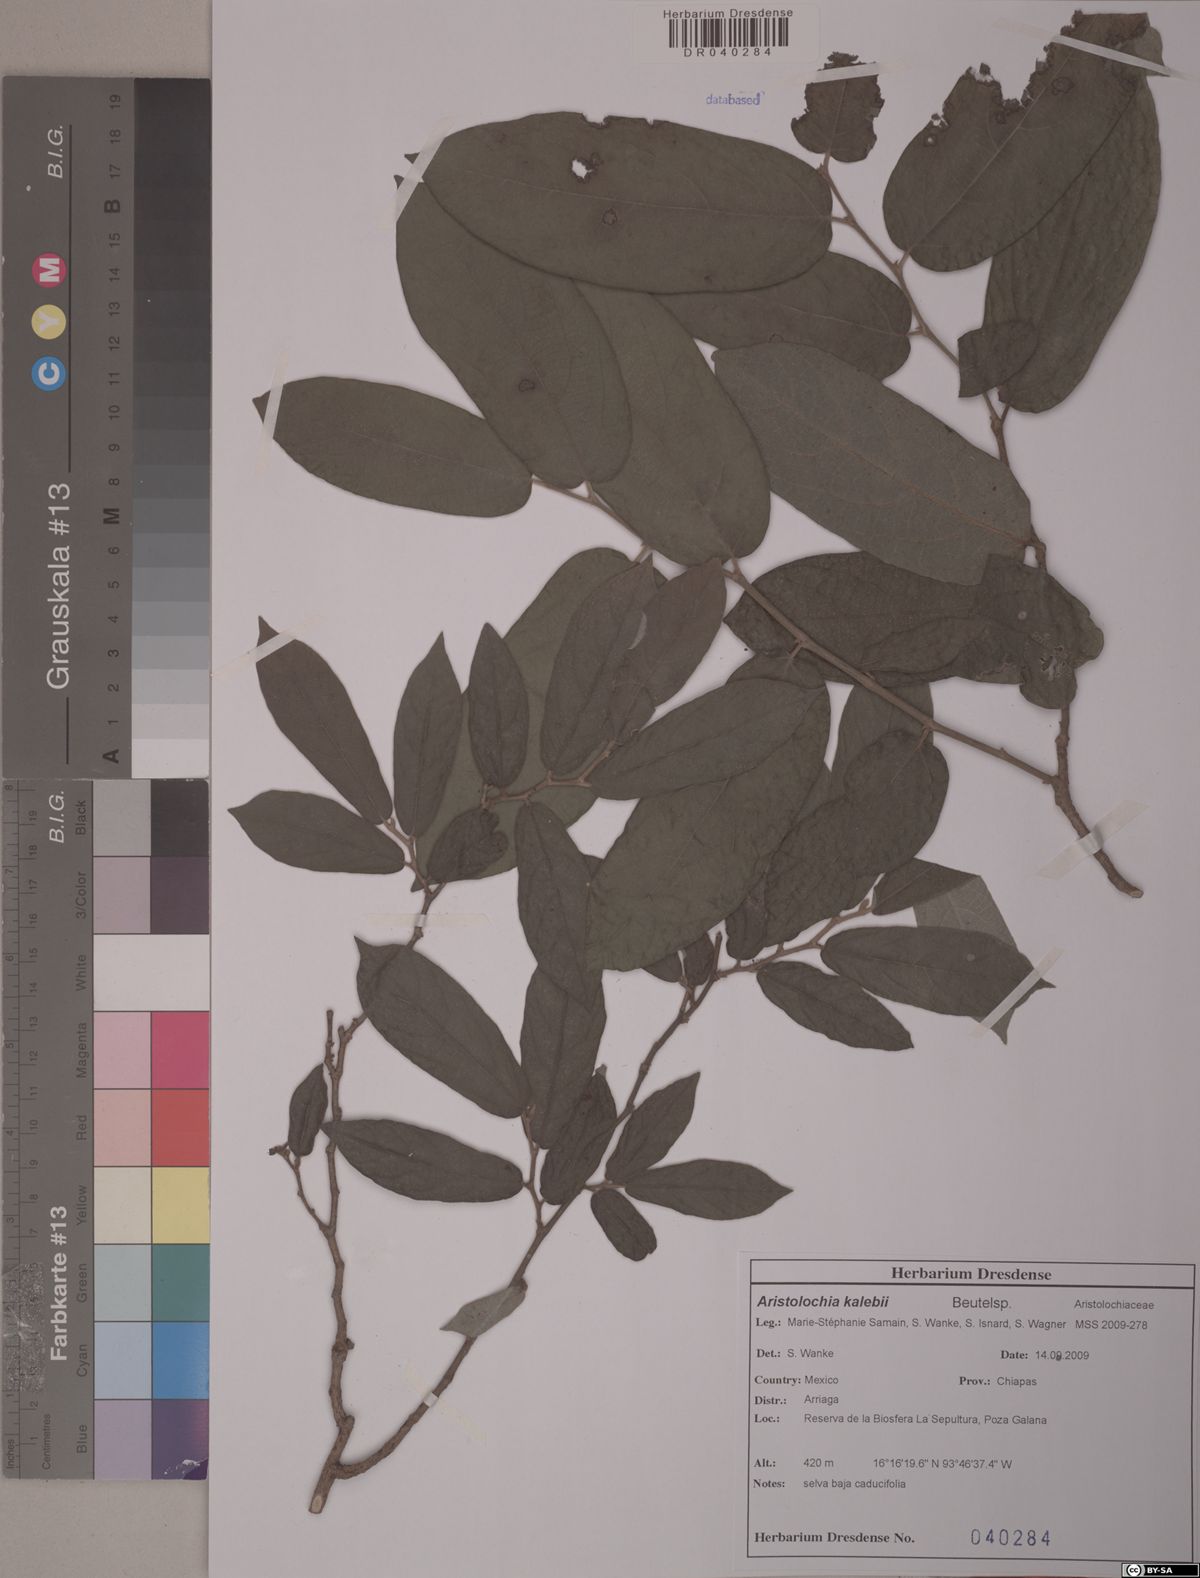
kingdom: Plantae
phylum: Tracheophyta
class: Magnoliopsida
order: Piperales
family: Aristolochiaceae
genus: Isotrema
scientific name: Isotrema bullatum
